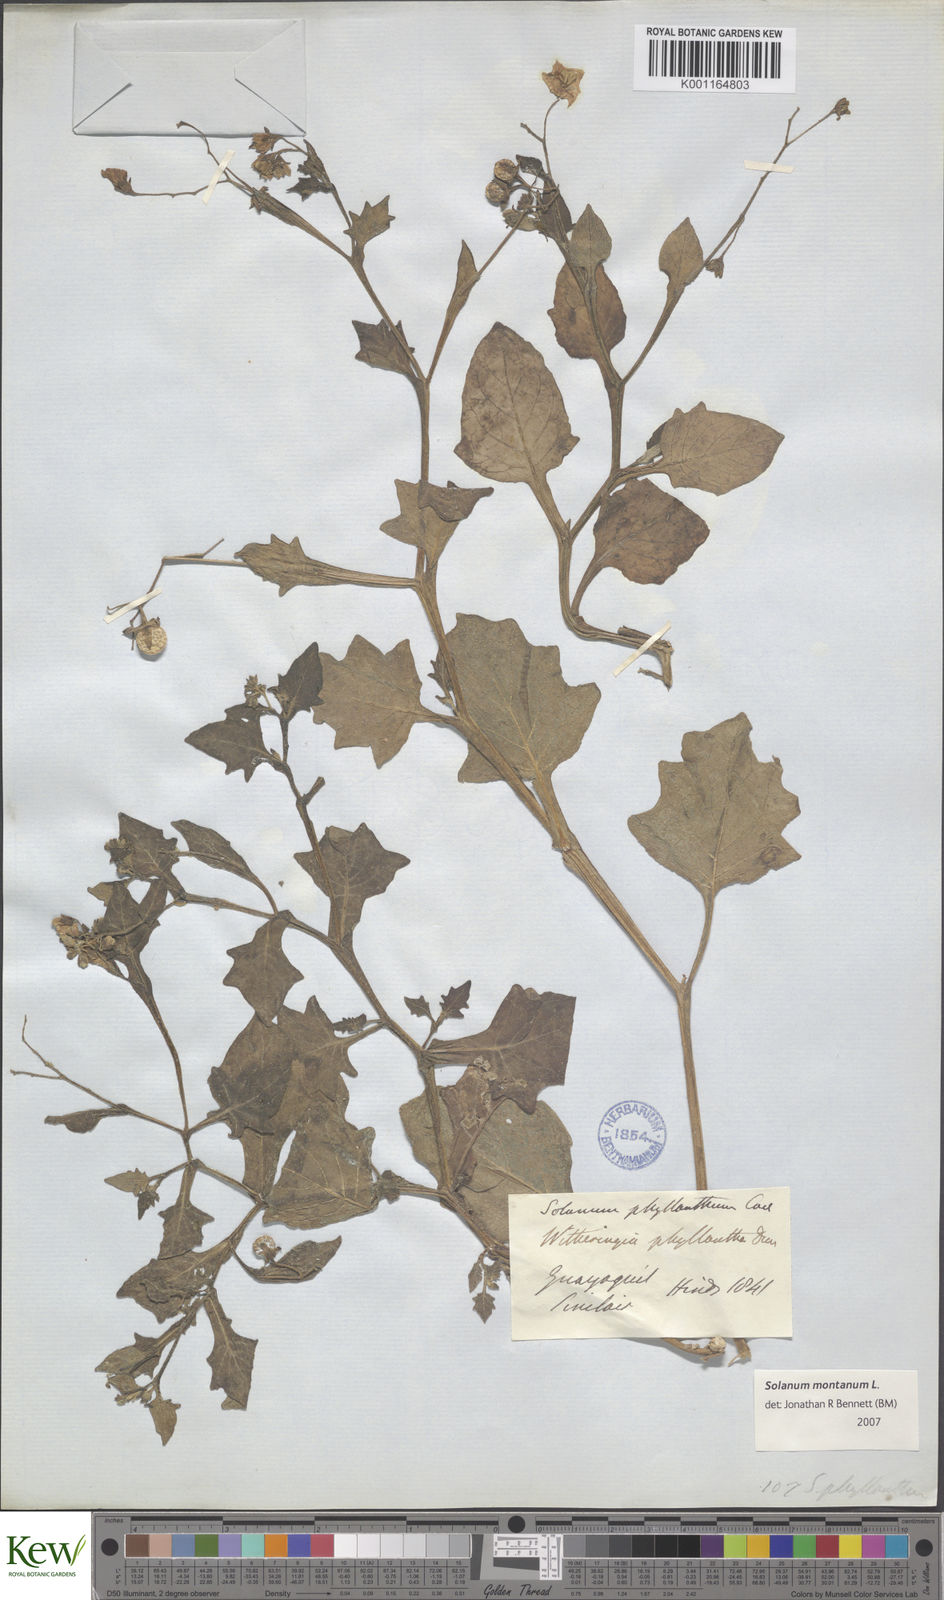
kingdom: Plantae
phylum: Tracheophyta
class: Magnoliopsida
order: Solanales
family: Solanaceae
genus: Solanum
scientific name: Solanum montanum
